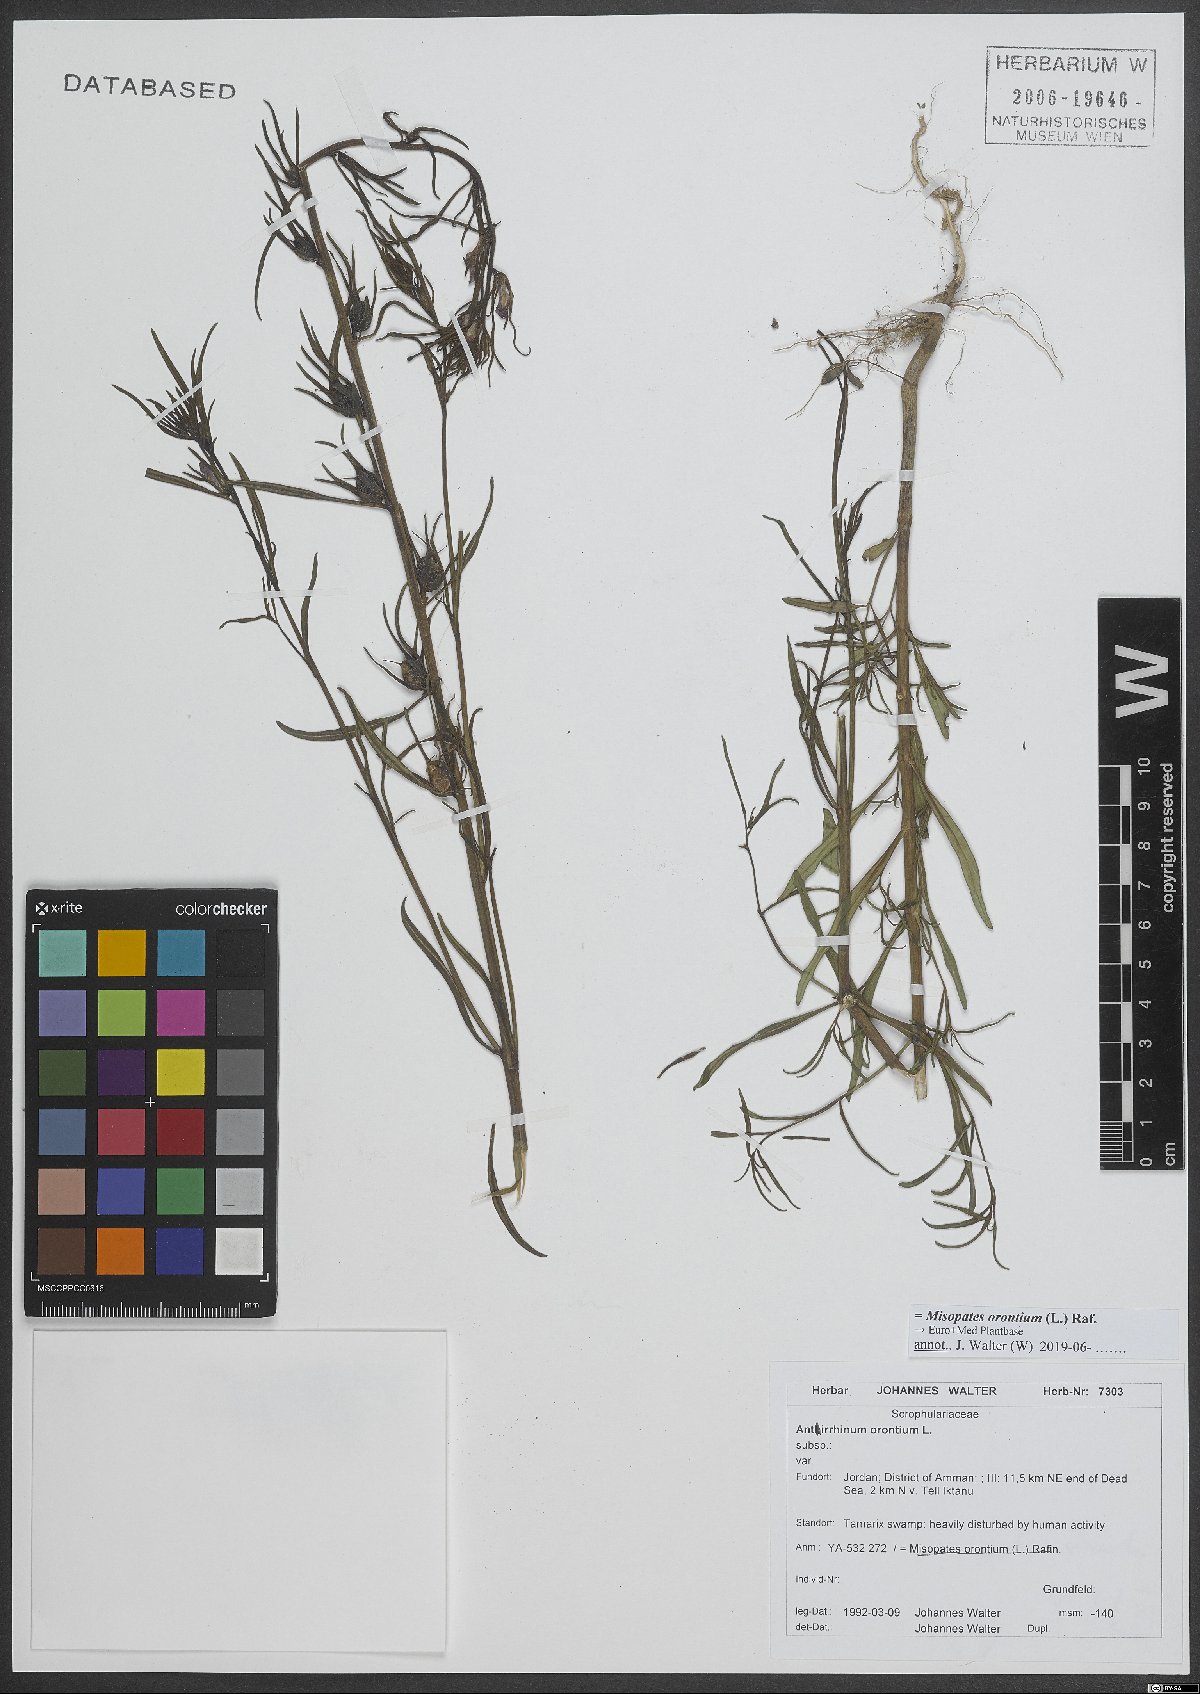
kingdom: Plantae
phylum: Tracheophyta
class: Magnoliopsida
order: Lamiales
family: Plantaginaceae
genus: Misopates
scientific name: Misopates orontium
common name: Weasel's-snout
